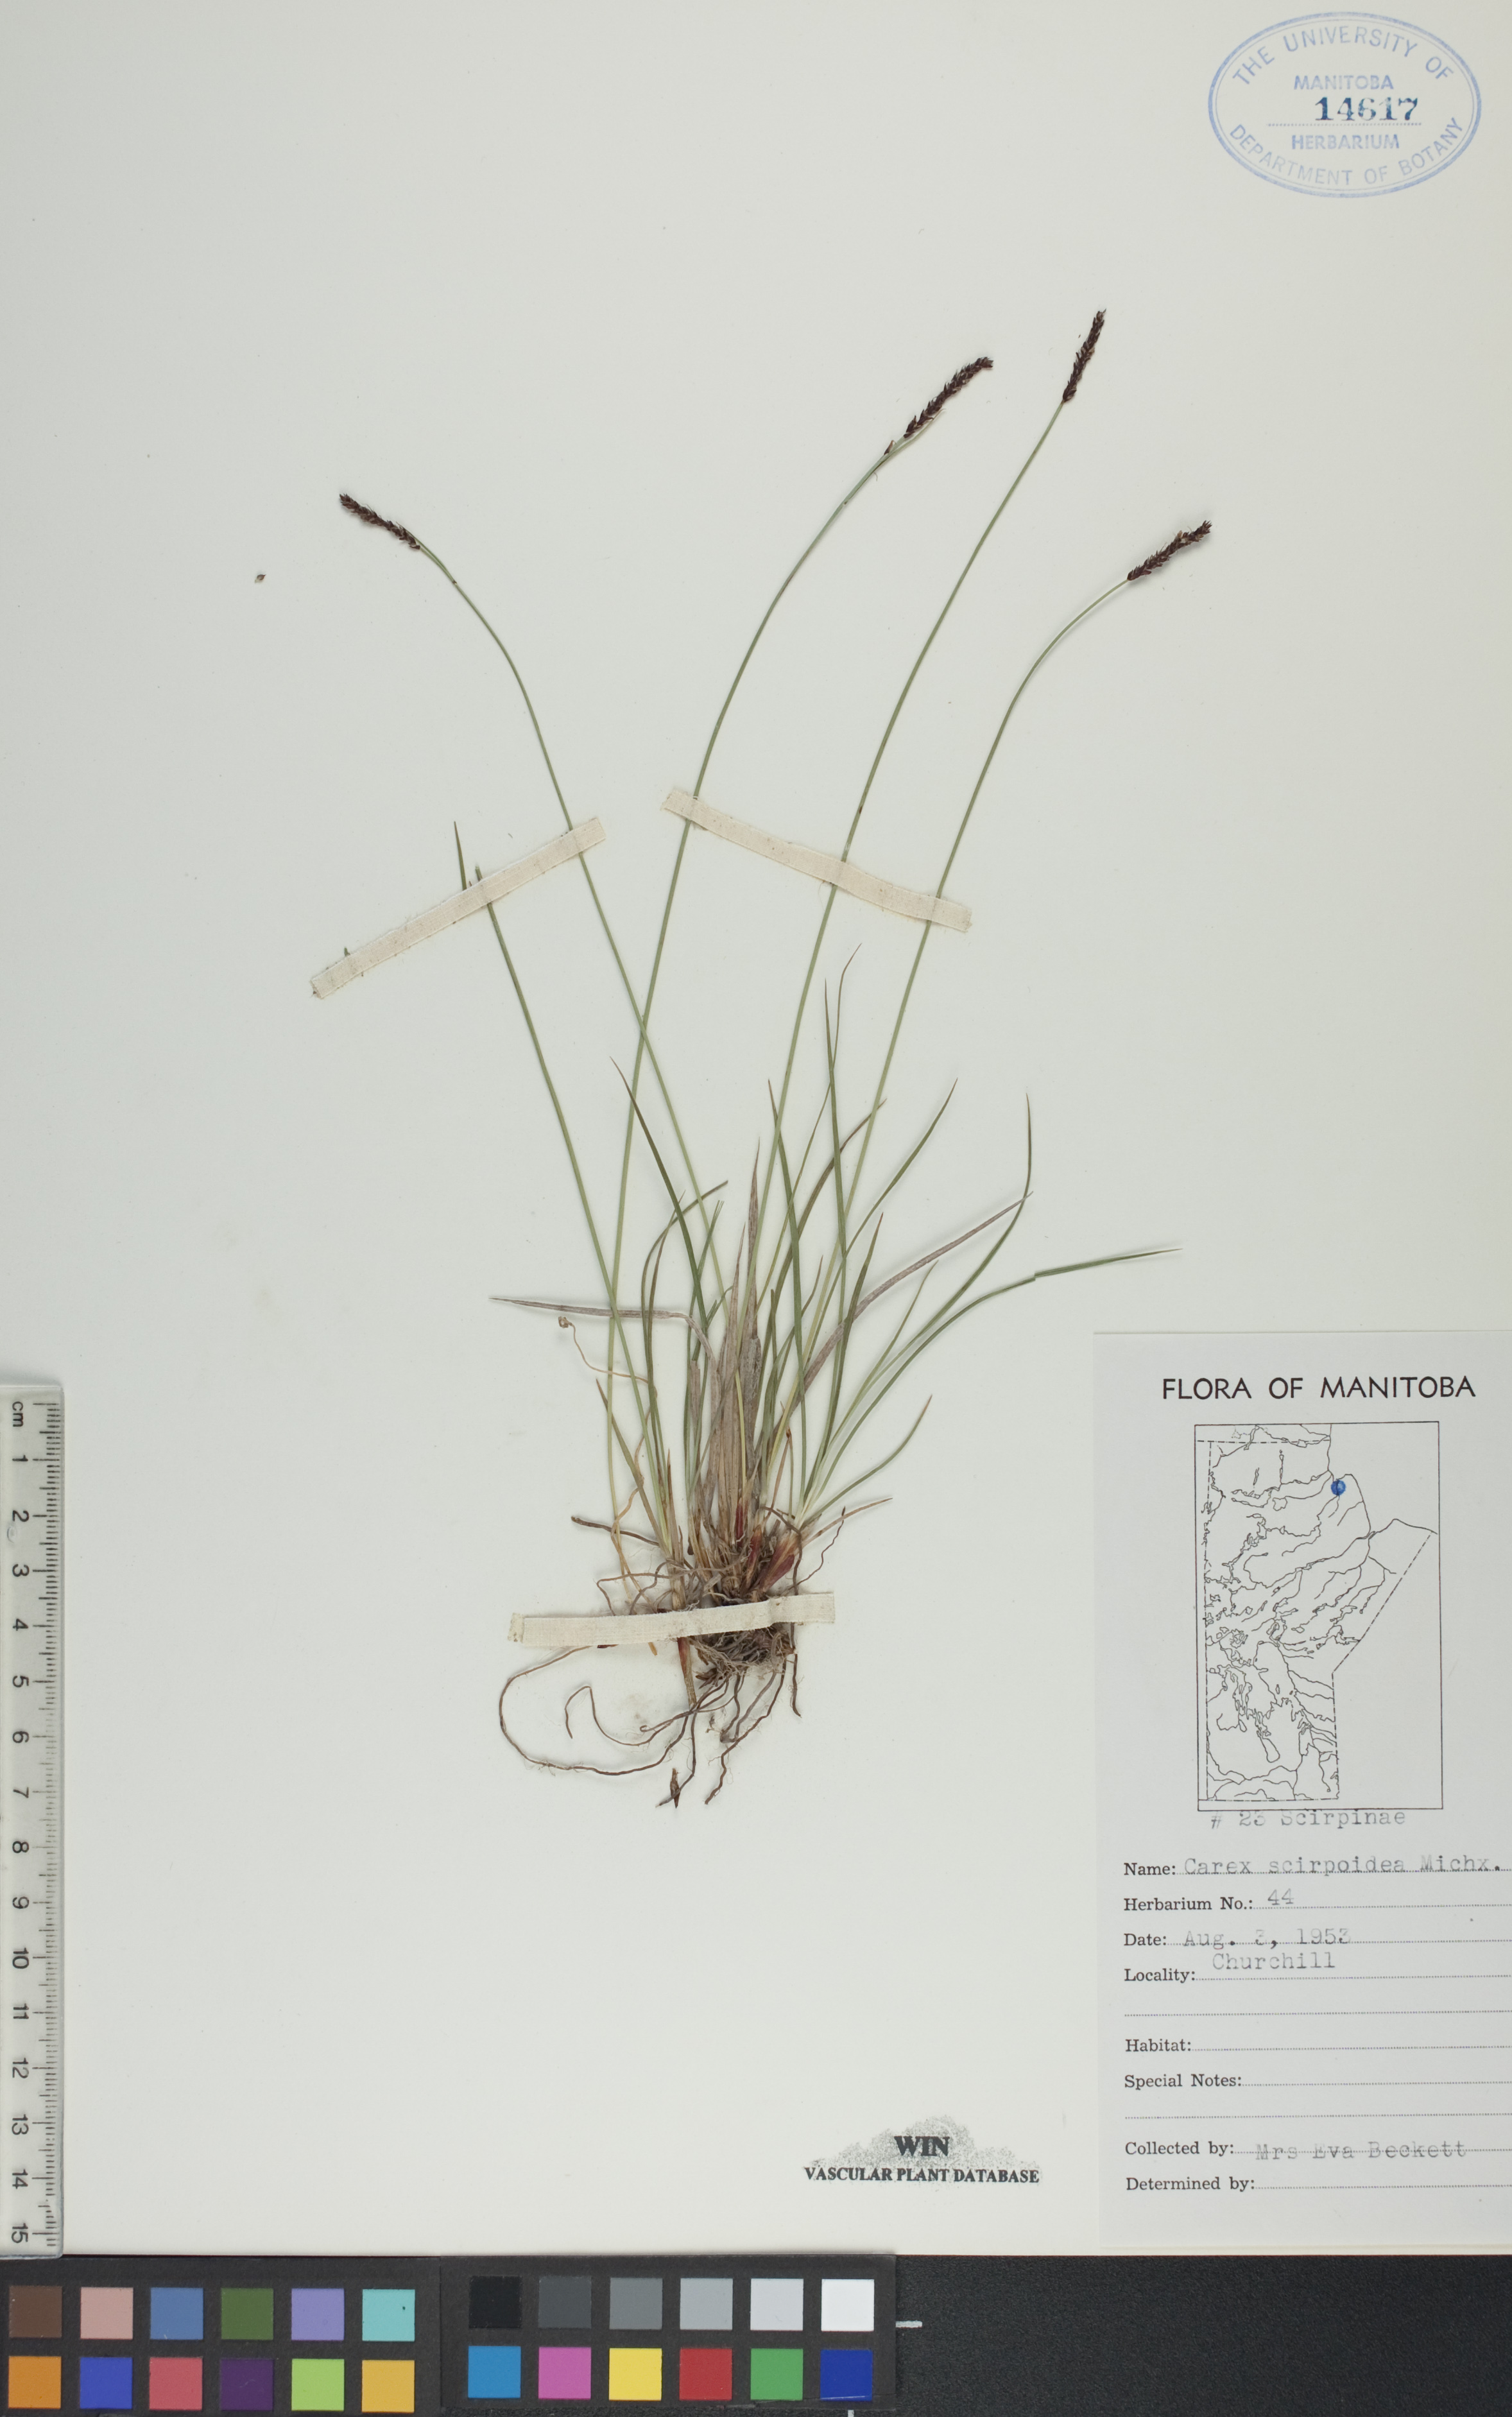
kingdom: Plantae
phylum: Tracheophyta
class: Liliopsida
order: Poales
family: Cyperaceae
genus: Carex
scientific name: Carex scirpoidea
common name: Canada single-spike sedge
